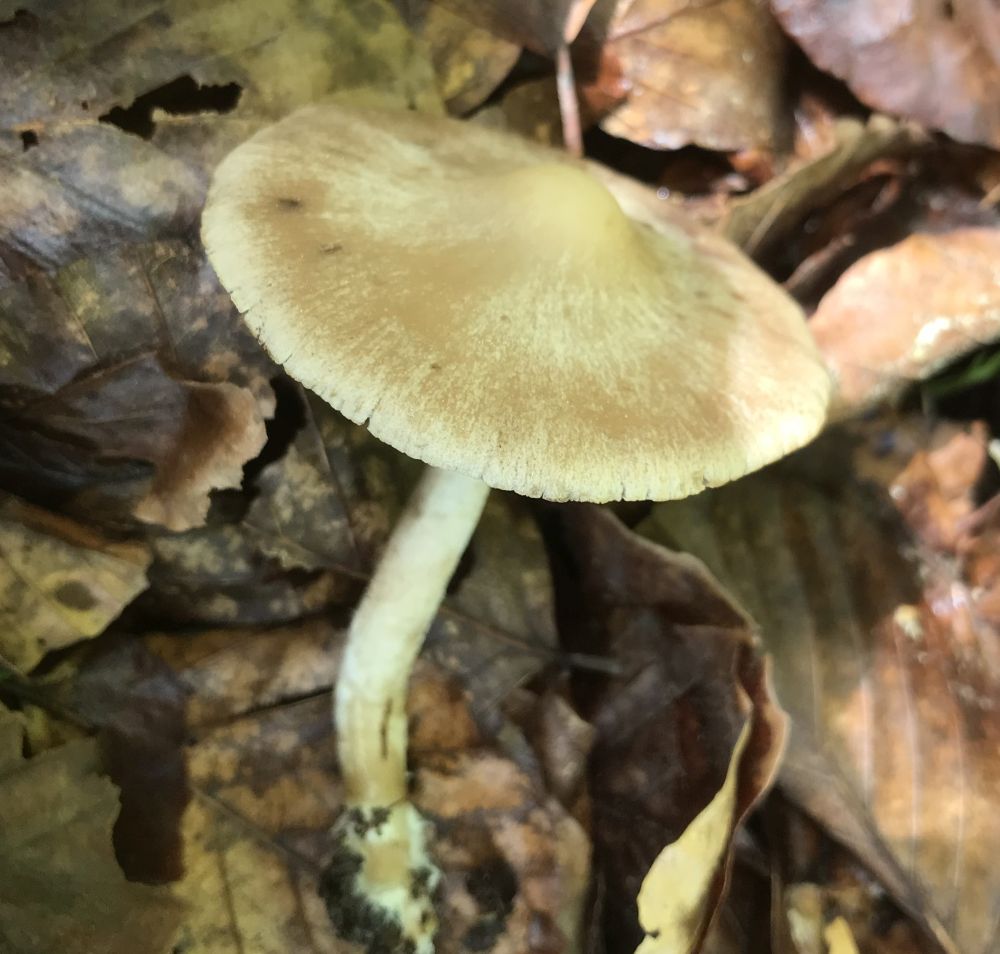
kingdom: Fungi
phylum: Basidiomycota
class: Agaricomycetes
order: Agaricales
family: Psathyrellaceae
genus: Psathyrella
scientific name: Psathyrella
